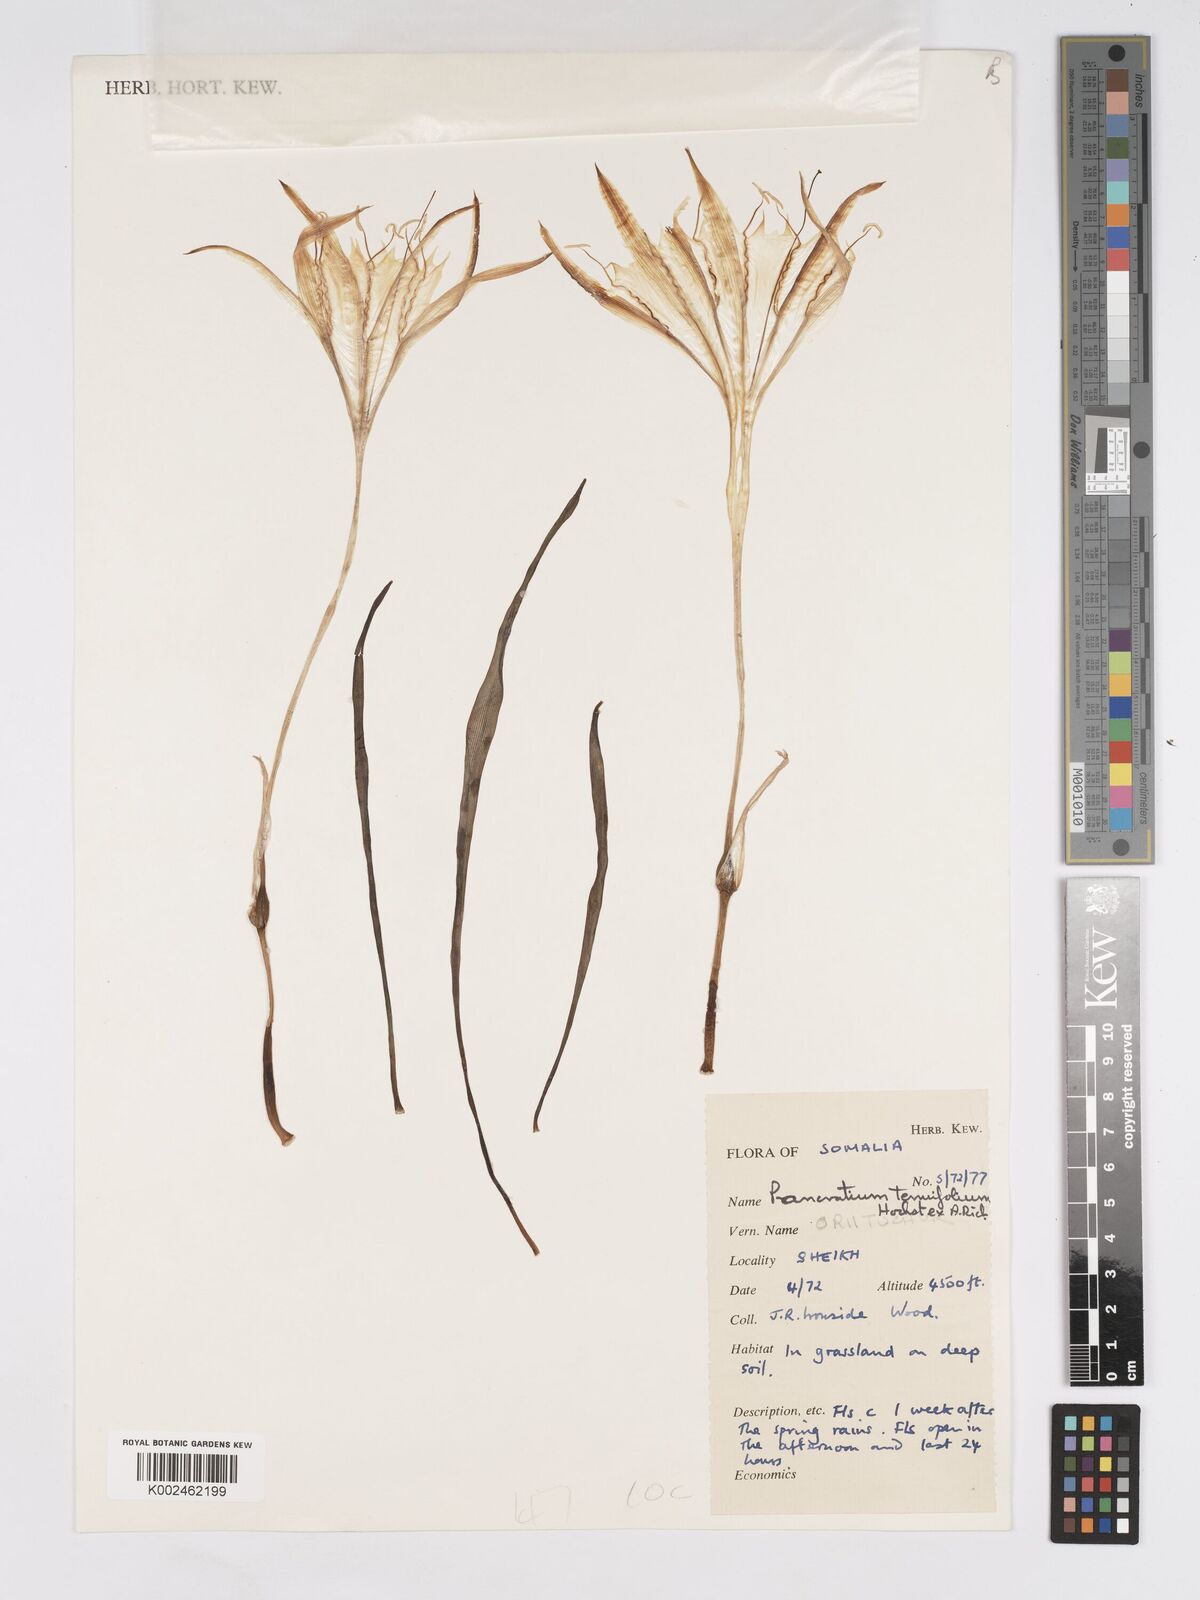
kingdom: Plantae
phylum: Tracheophyta
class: Liliopsida
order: Asparagales
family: Amaryllidaceae
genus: Pancratium
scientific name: Pancratium tenuifolium
